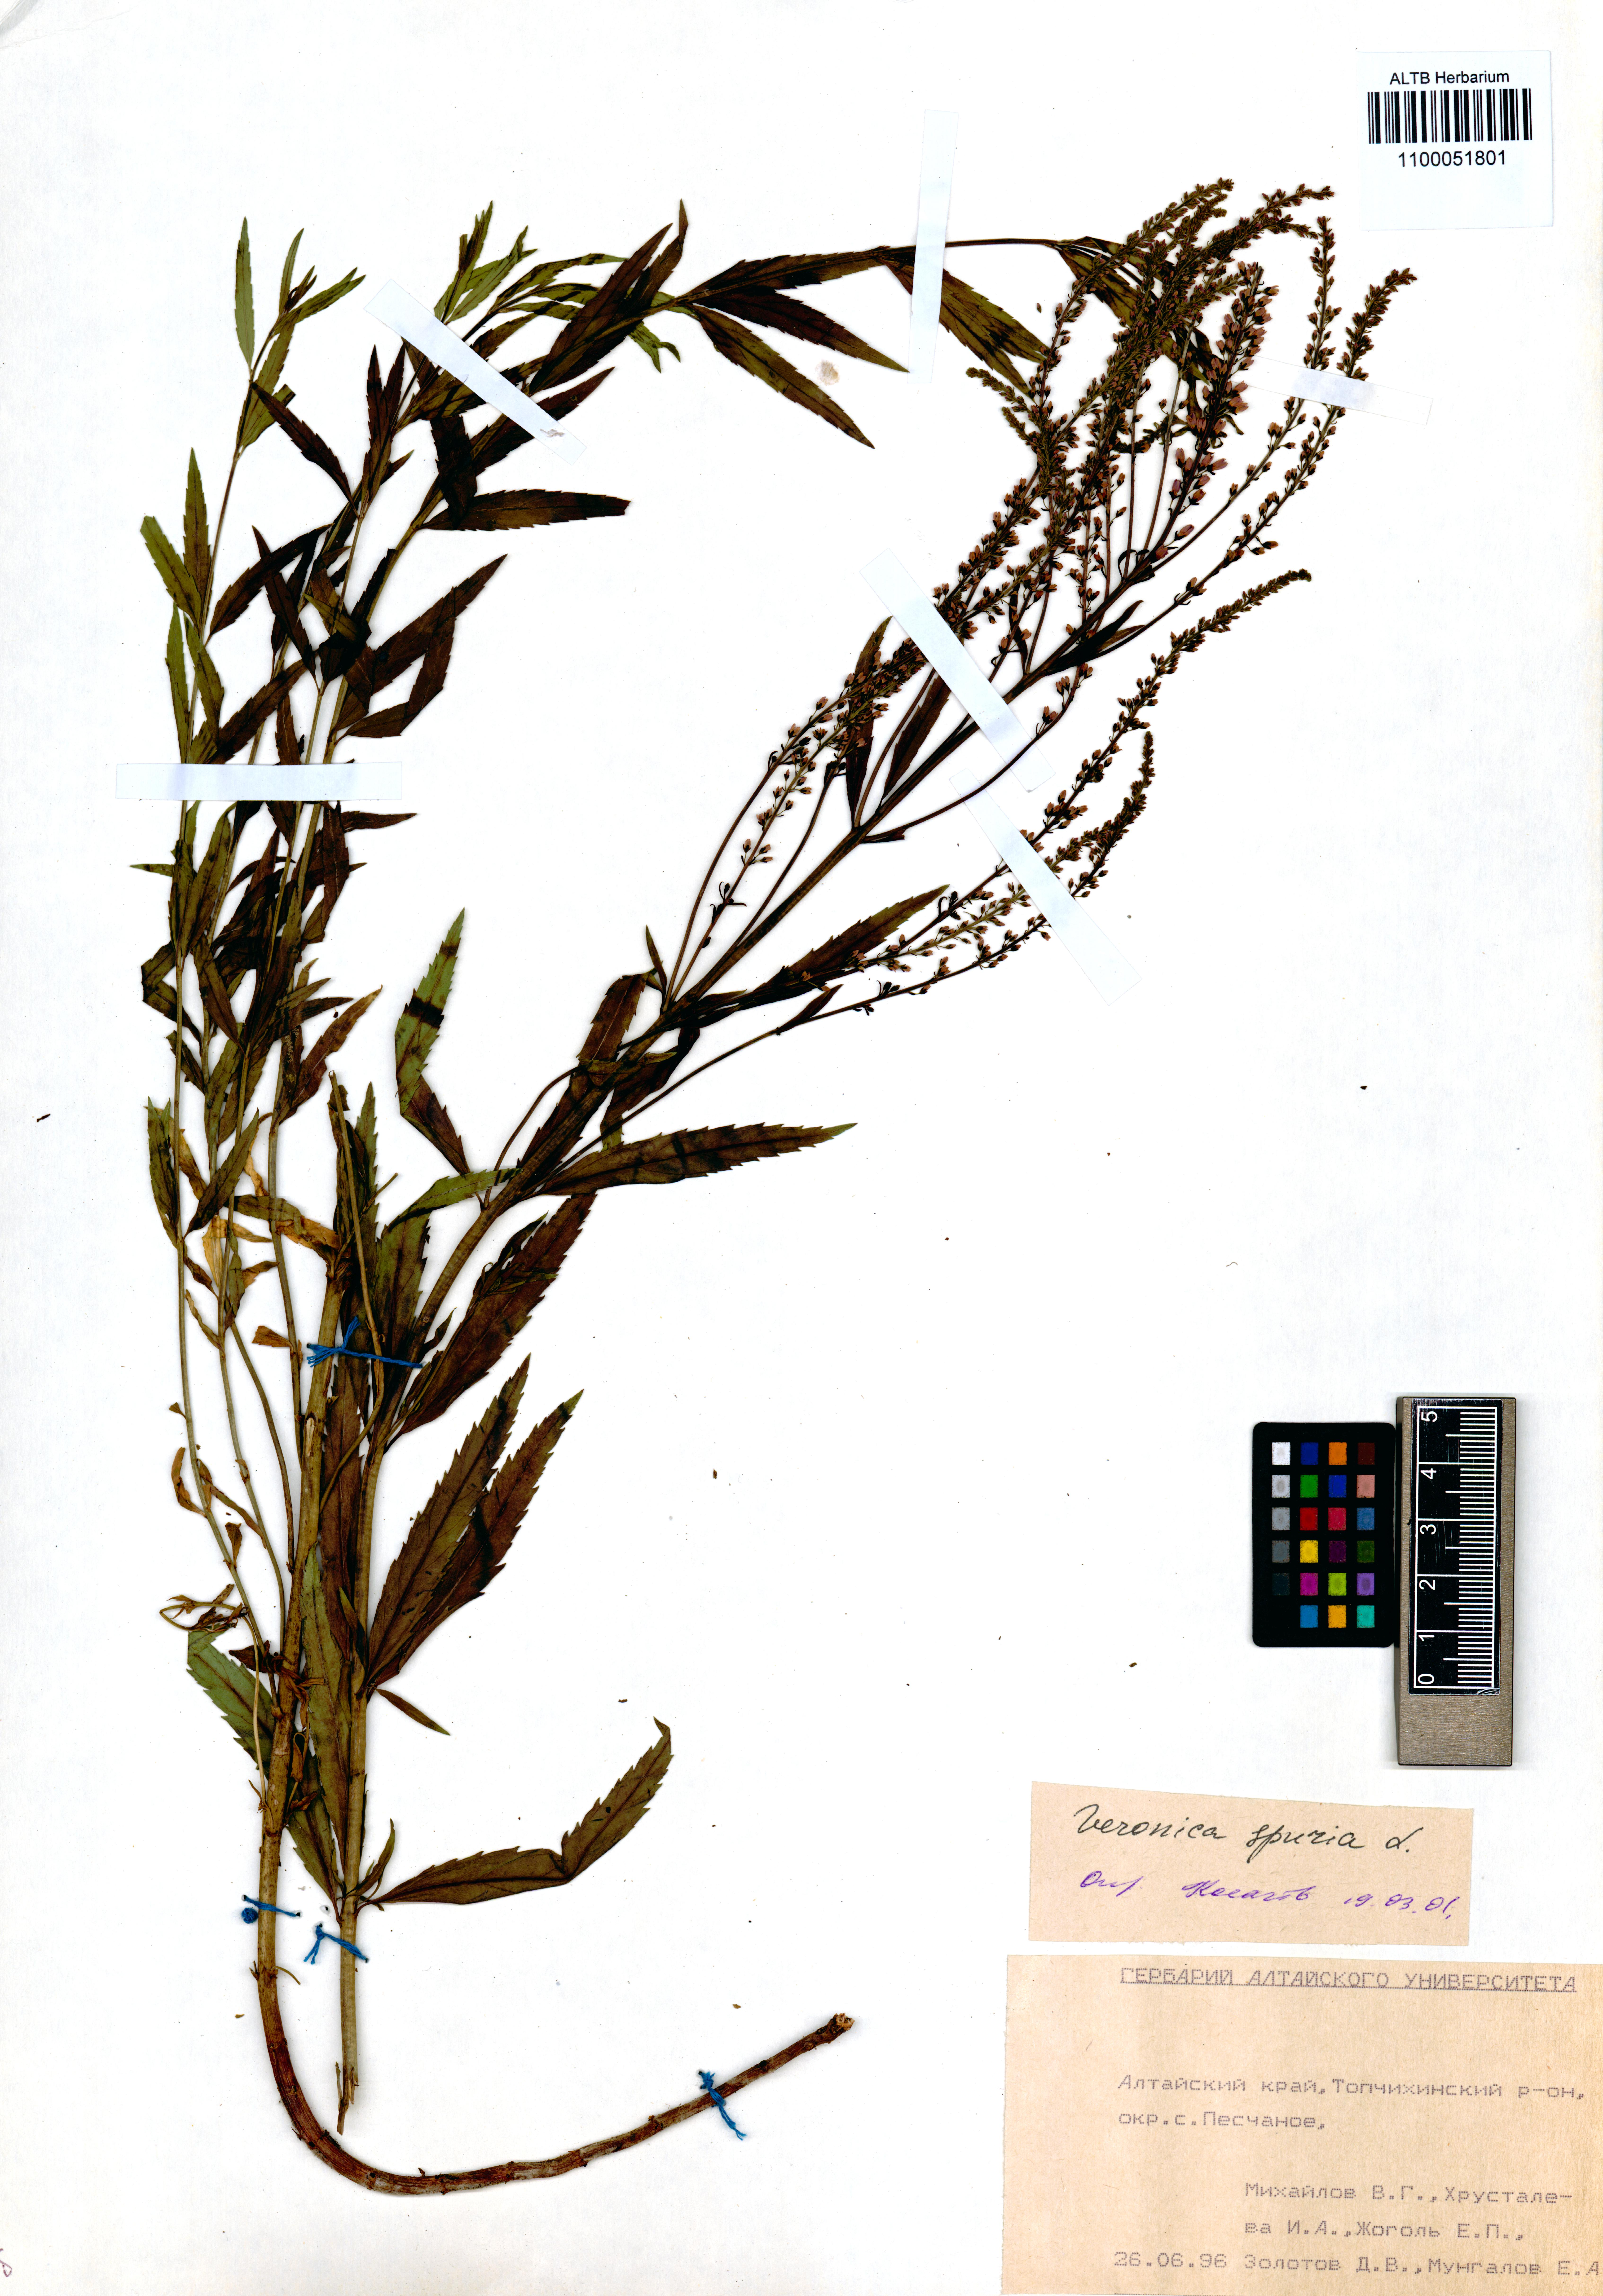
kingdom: Plantae
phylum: Tracheophyta
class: Magnoliopsida
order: Lamiales
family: Plantaginaceae
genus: Veronica
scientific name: Veronica spuria
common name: Bastard speedwell
